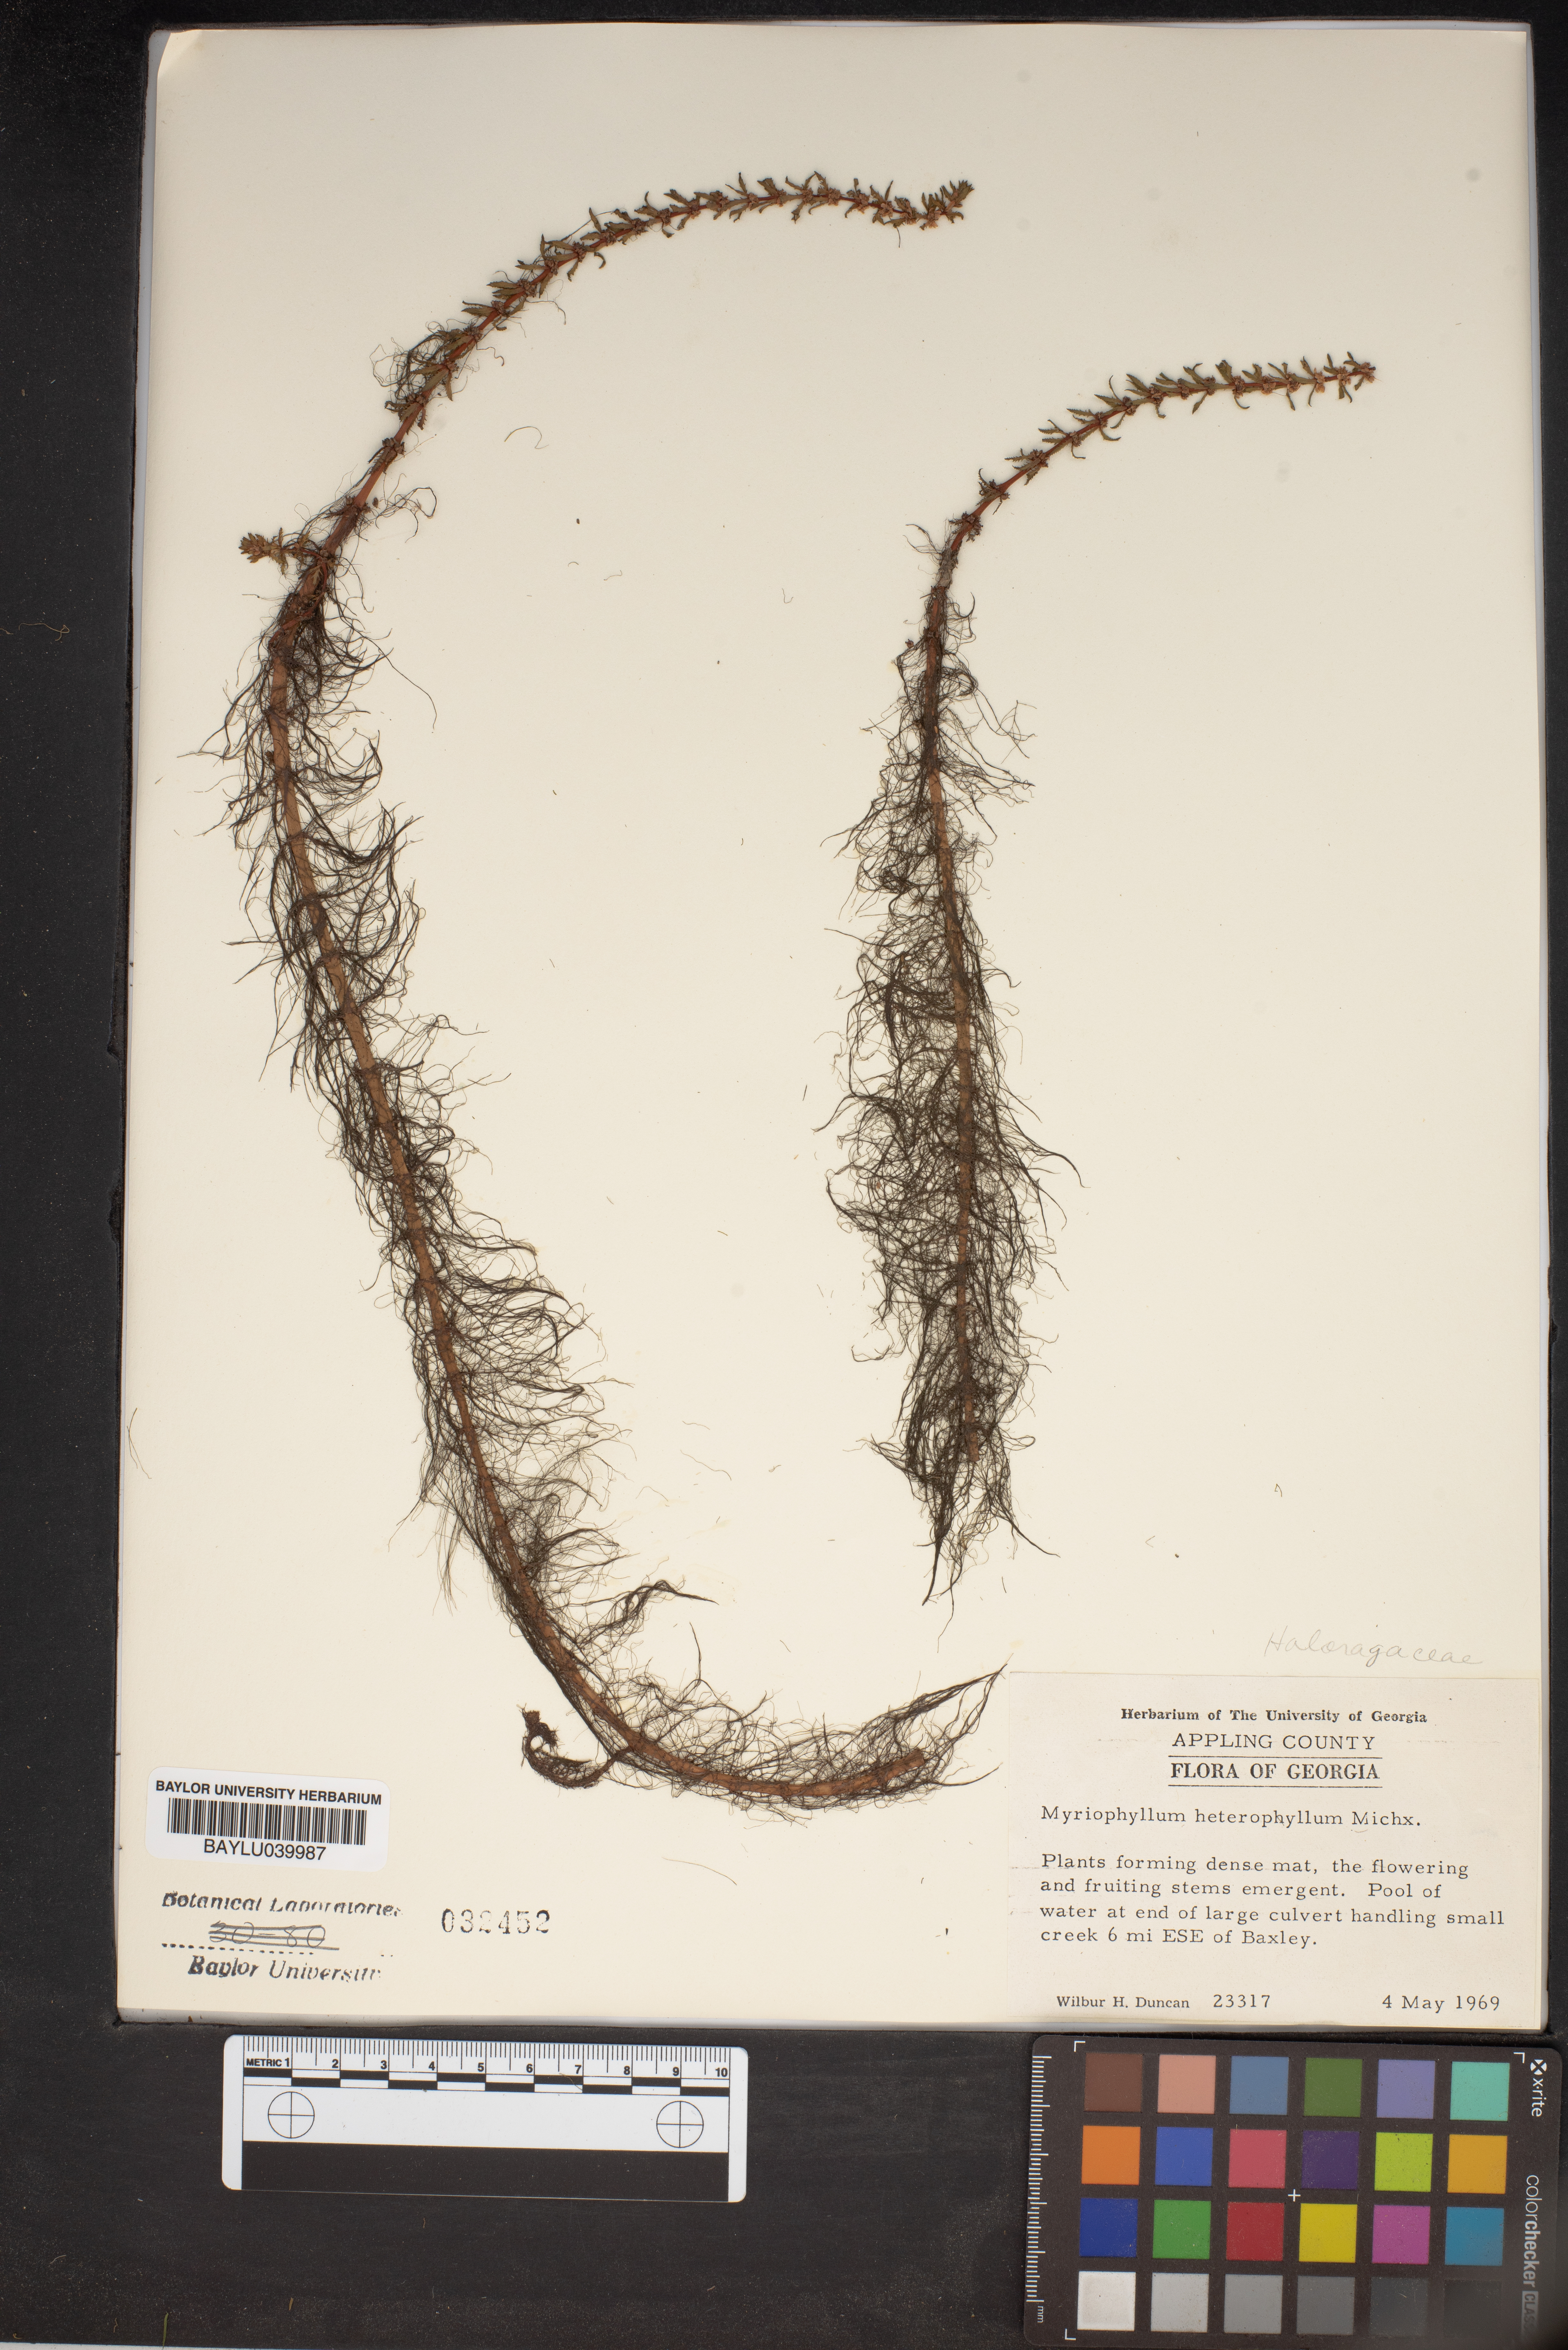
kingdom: Plantae
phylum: Tracheophyta
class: Magnoliopsida
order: Saxifragales
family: Haloragaceae
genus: Myriophyllum
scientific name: Myriophyllum heterophyllum
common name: Variable watermilfoil
